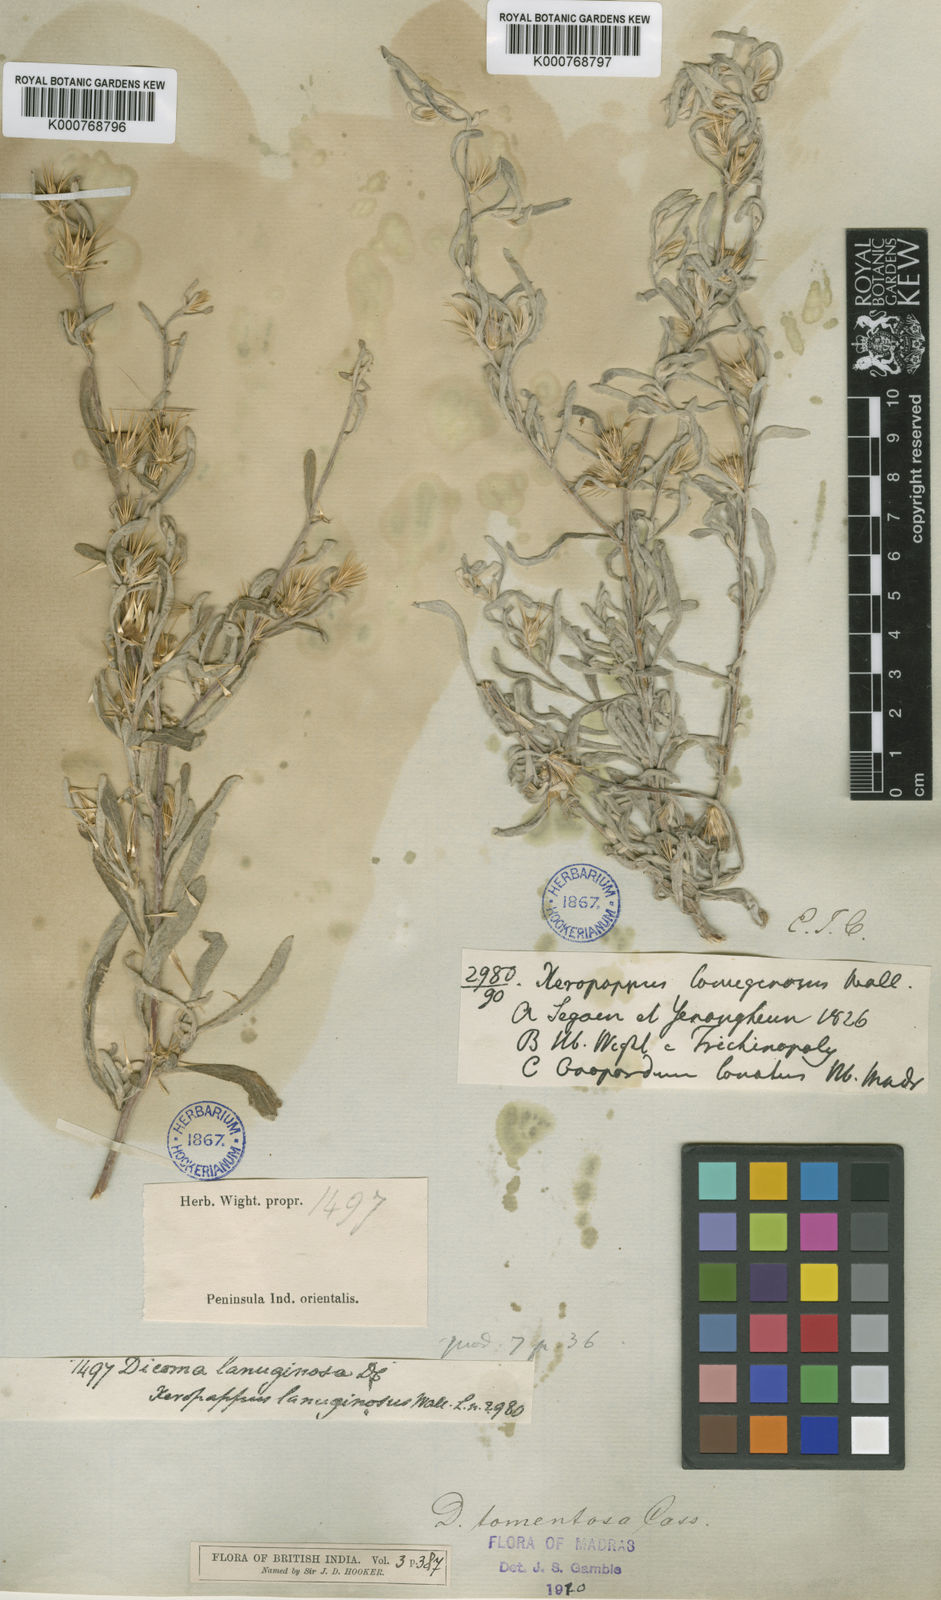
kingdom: Plantae
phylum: Tracheophyta
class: Magnoliopsida
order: Asterales
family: Asteraceae
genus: Dicoma
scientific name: Dicoma tomentosa
